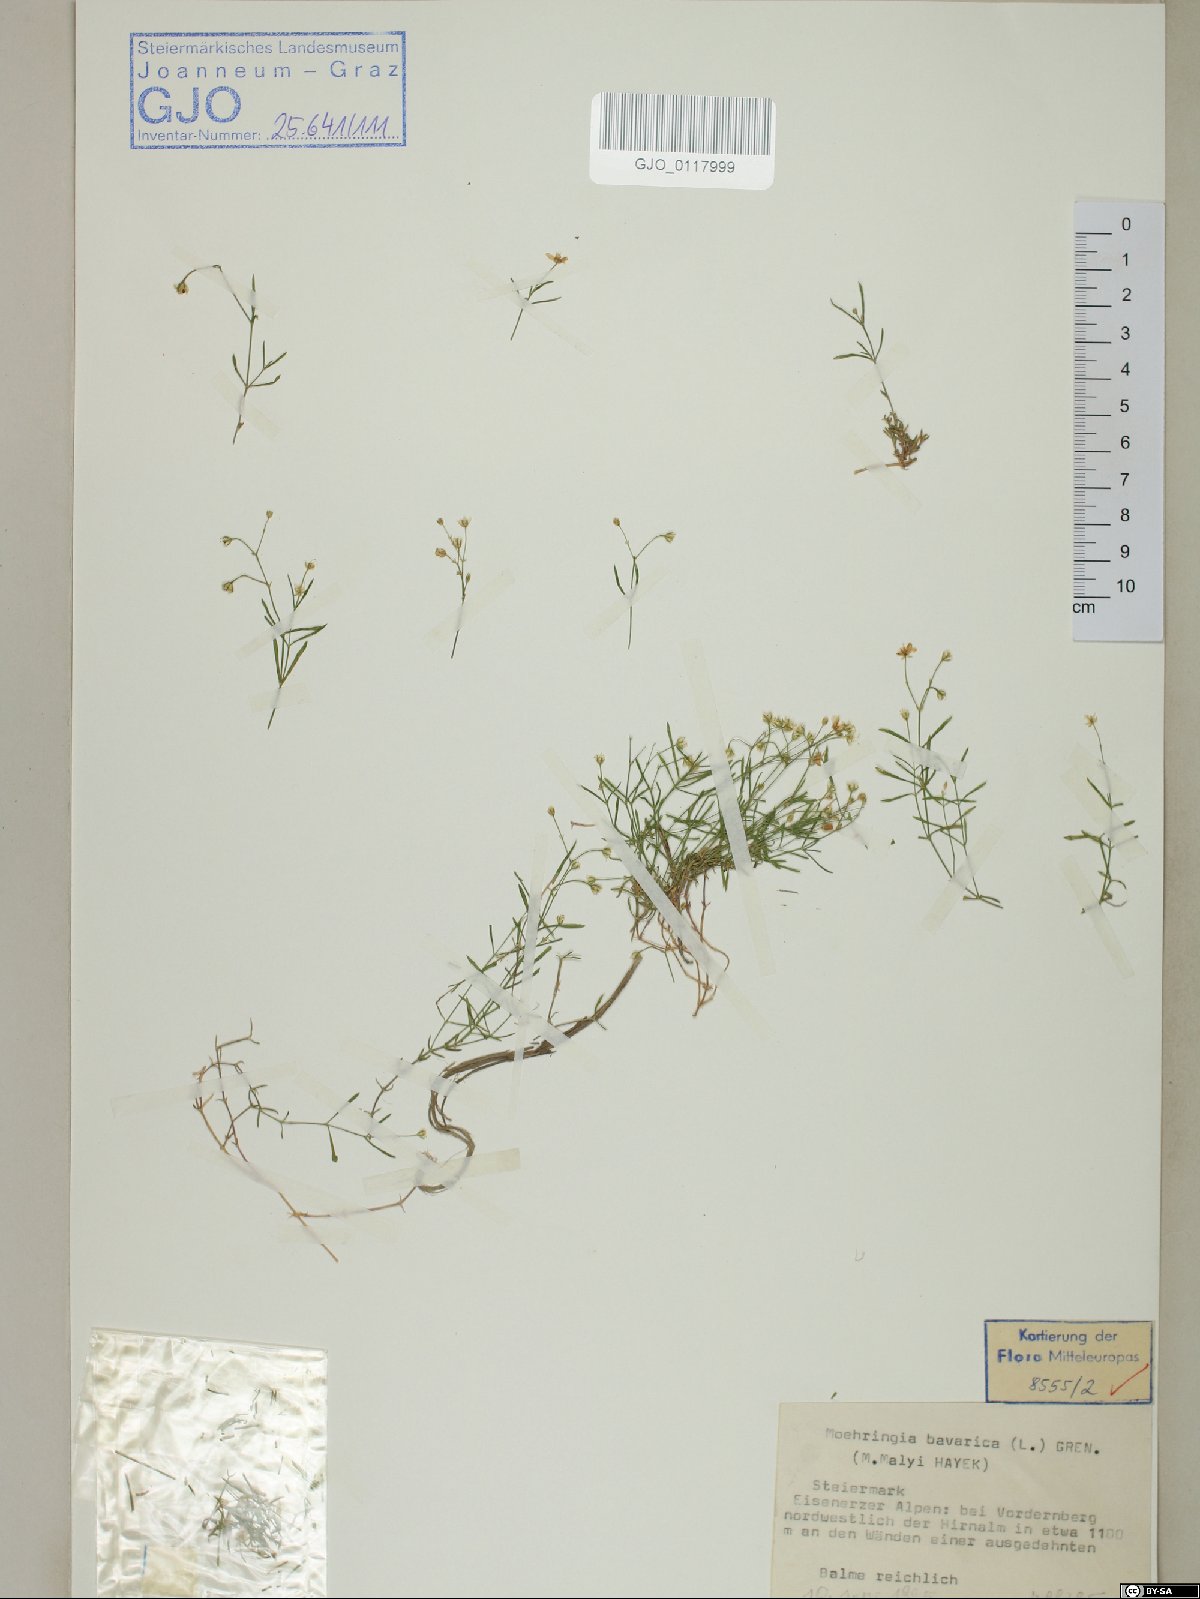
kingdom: Plantae
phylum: Tracheophyta
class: Magnoliopsida
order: Caryophyllales
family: Caryophyllaceae
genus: Moehringia
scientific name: Moehringia bavarica
